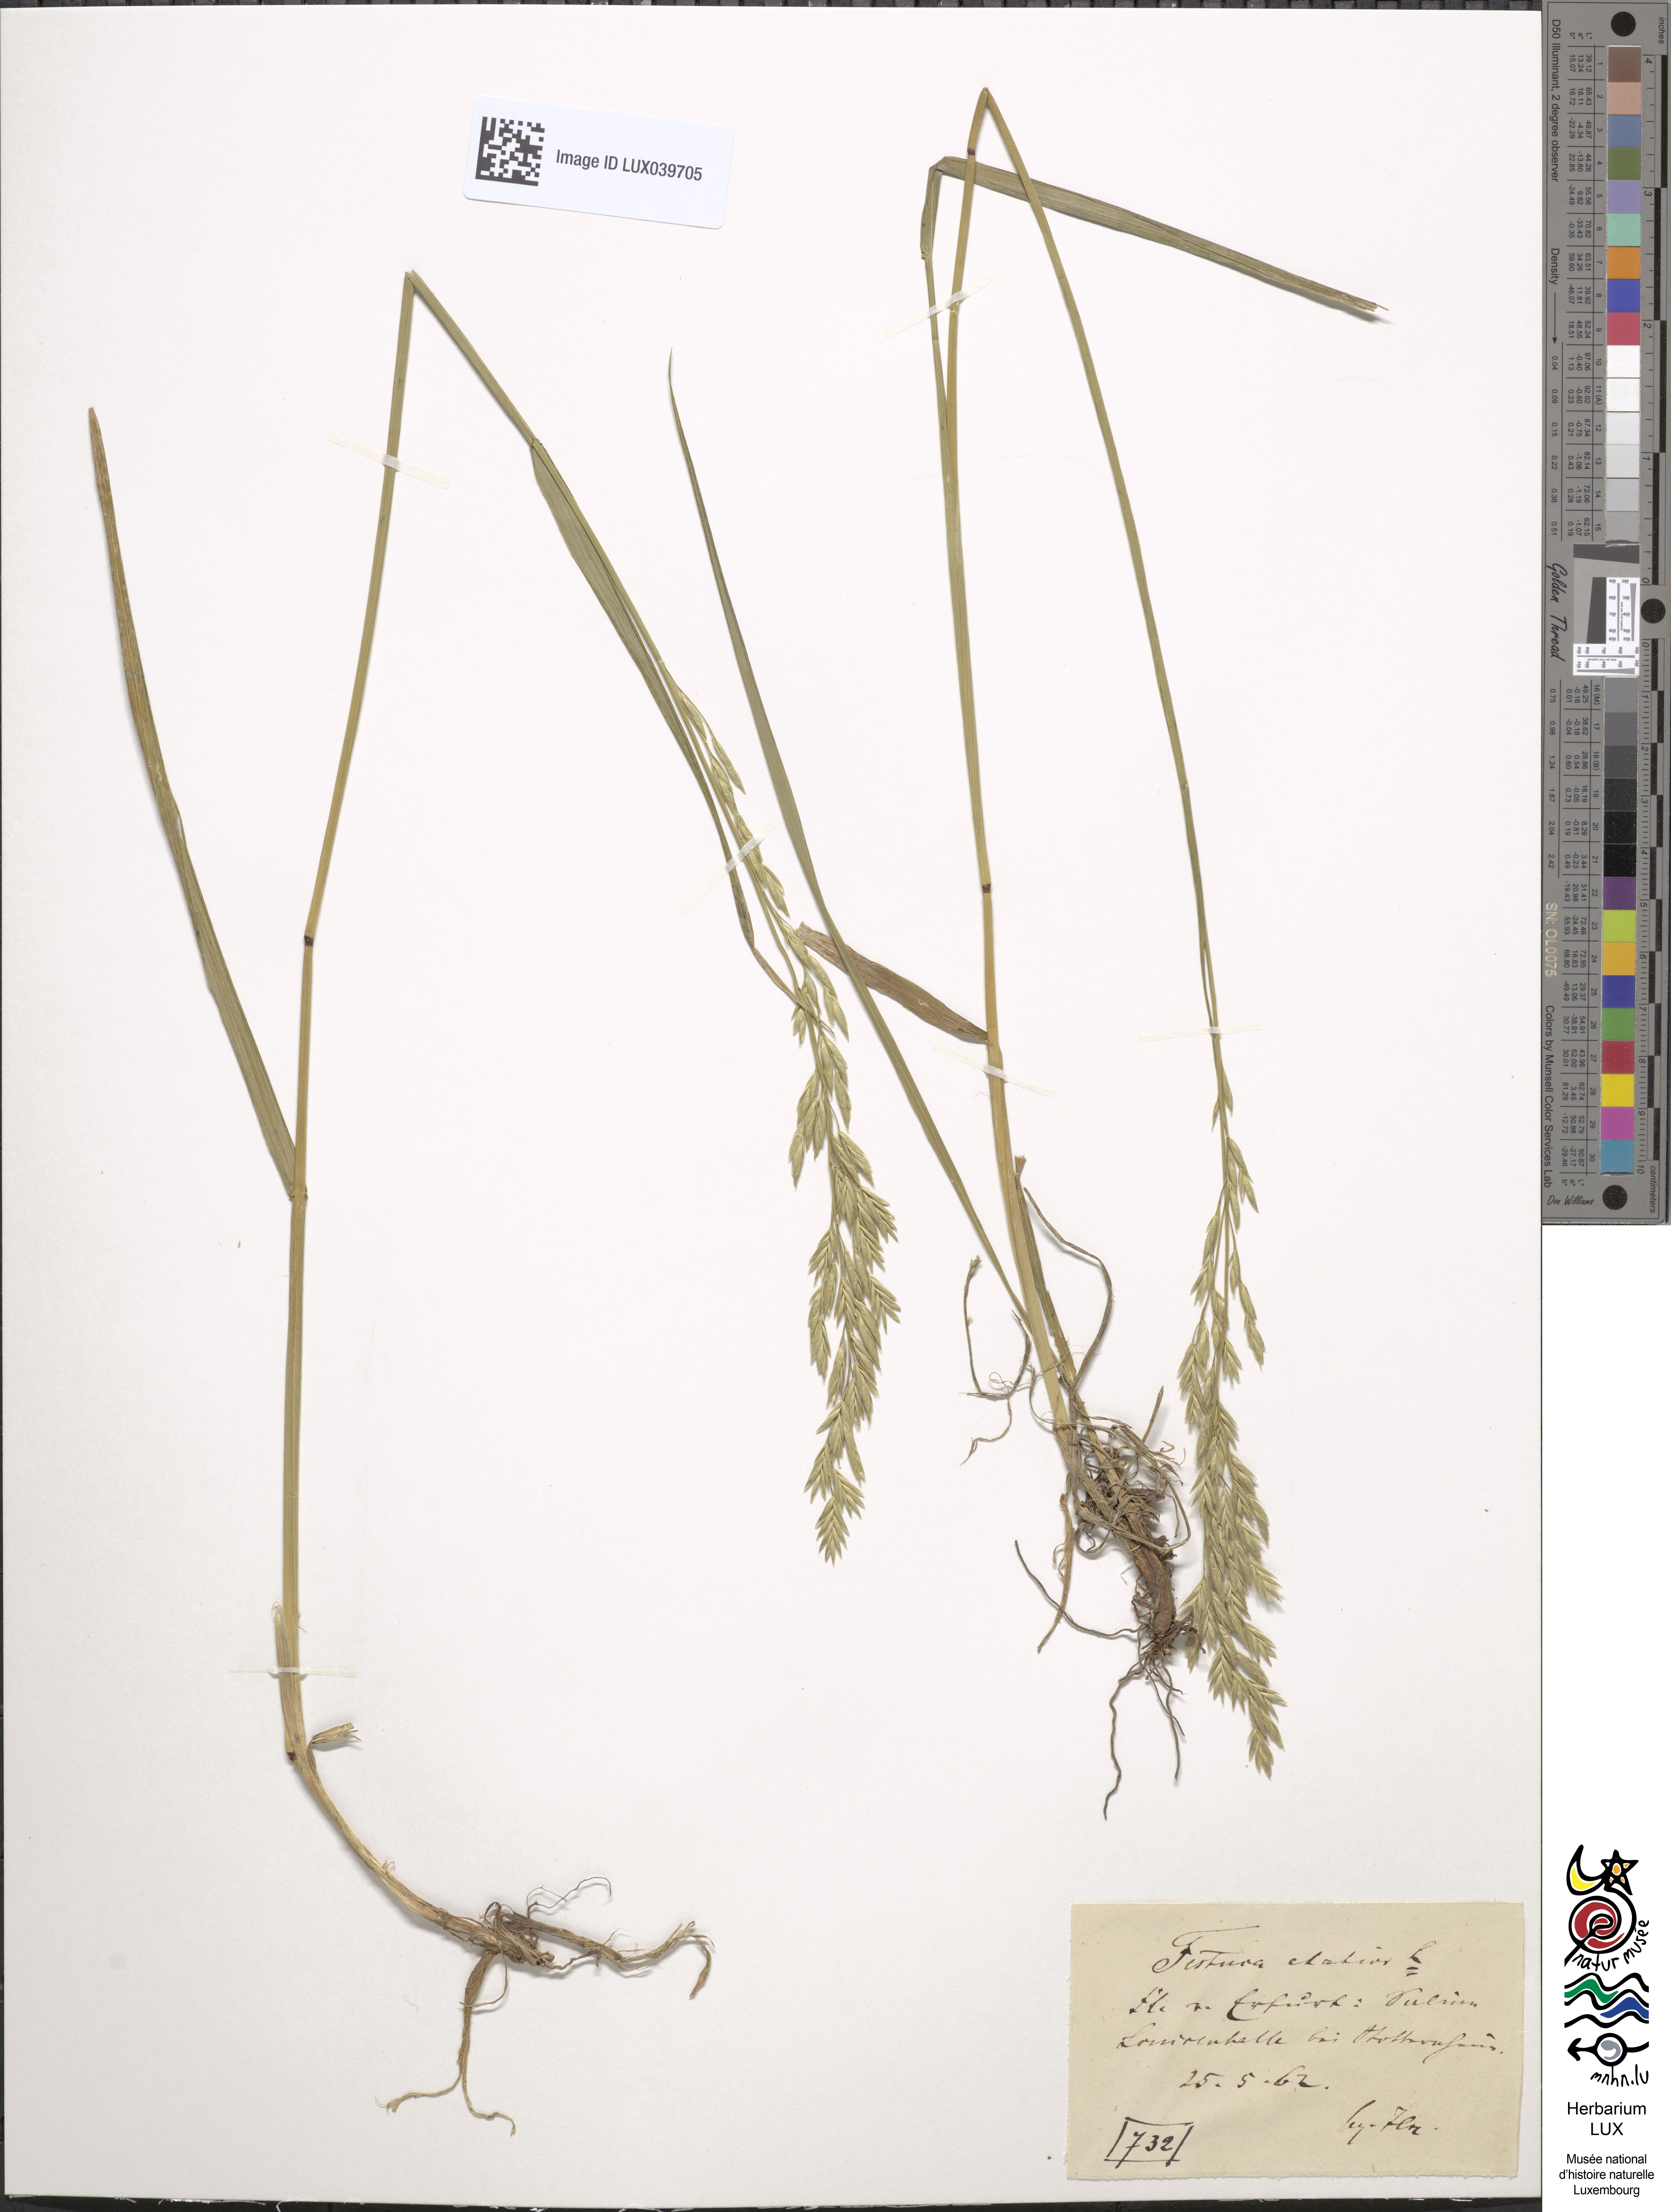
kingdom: Plantae
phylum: Tracheophyta
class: Liliopsida
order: Poales
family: Poaceae
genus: Lolium
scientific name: Lolium pratense
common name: Dover grass
